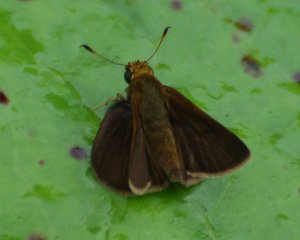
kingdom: Animalia
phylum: Arthropoda
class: Insecta
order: Lepidoptera
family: Hesperiidae
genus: Euphyes
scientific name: Euphyes vestris
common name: Dun Skipper
